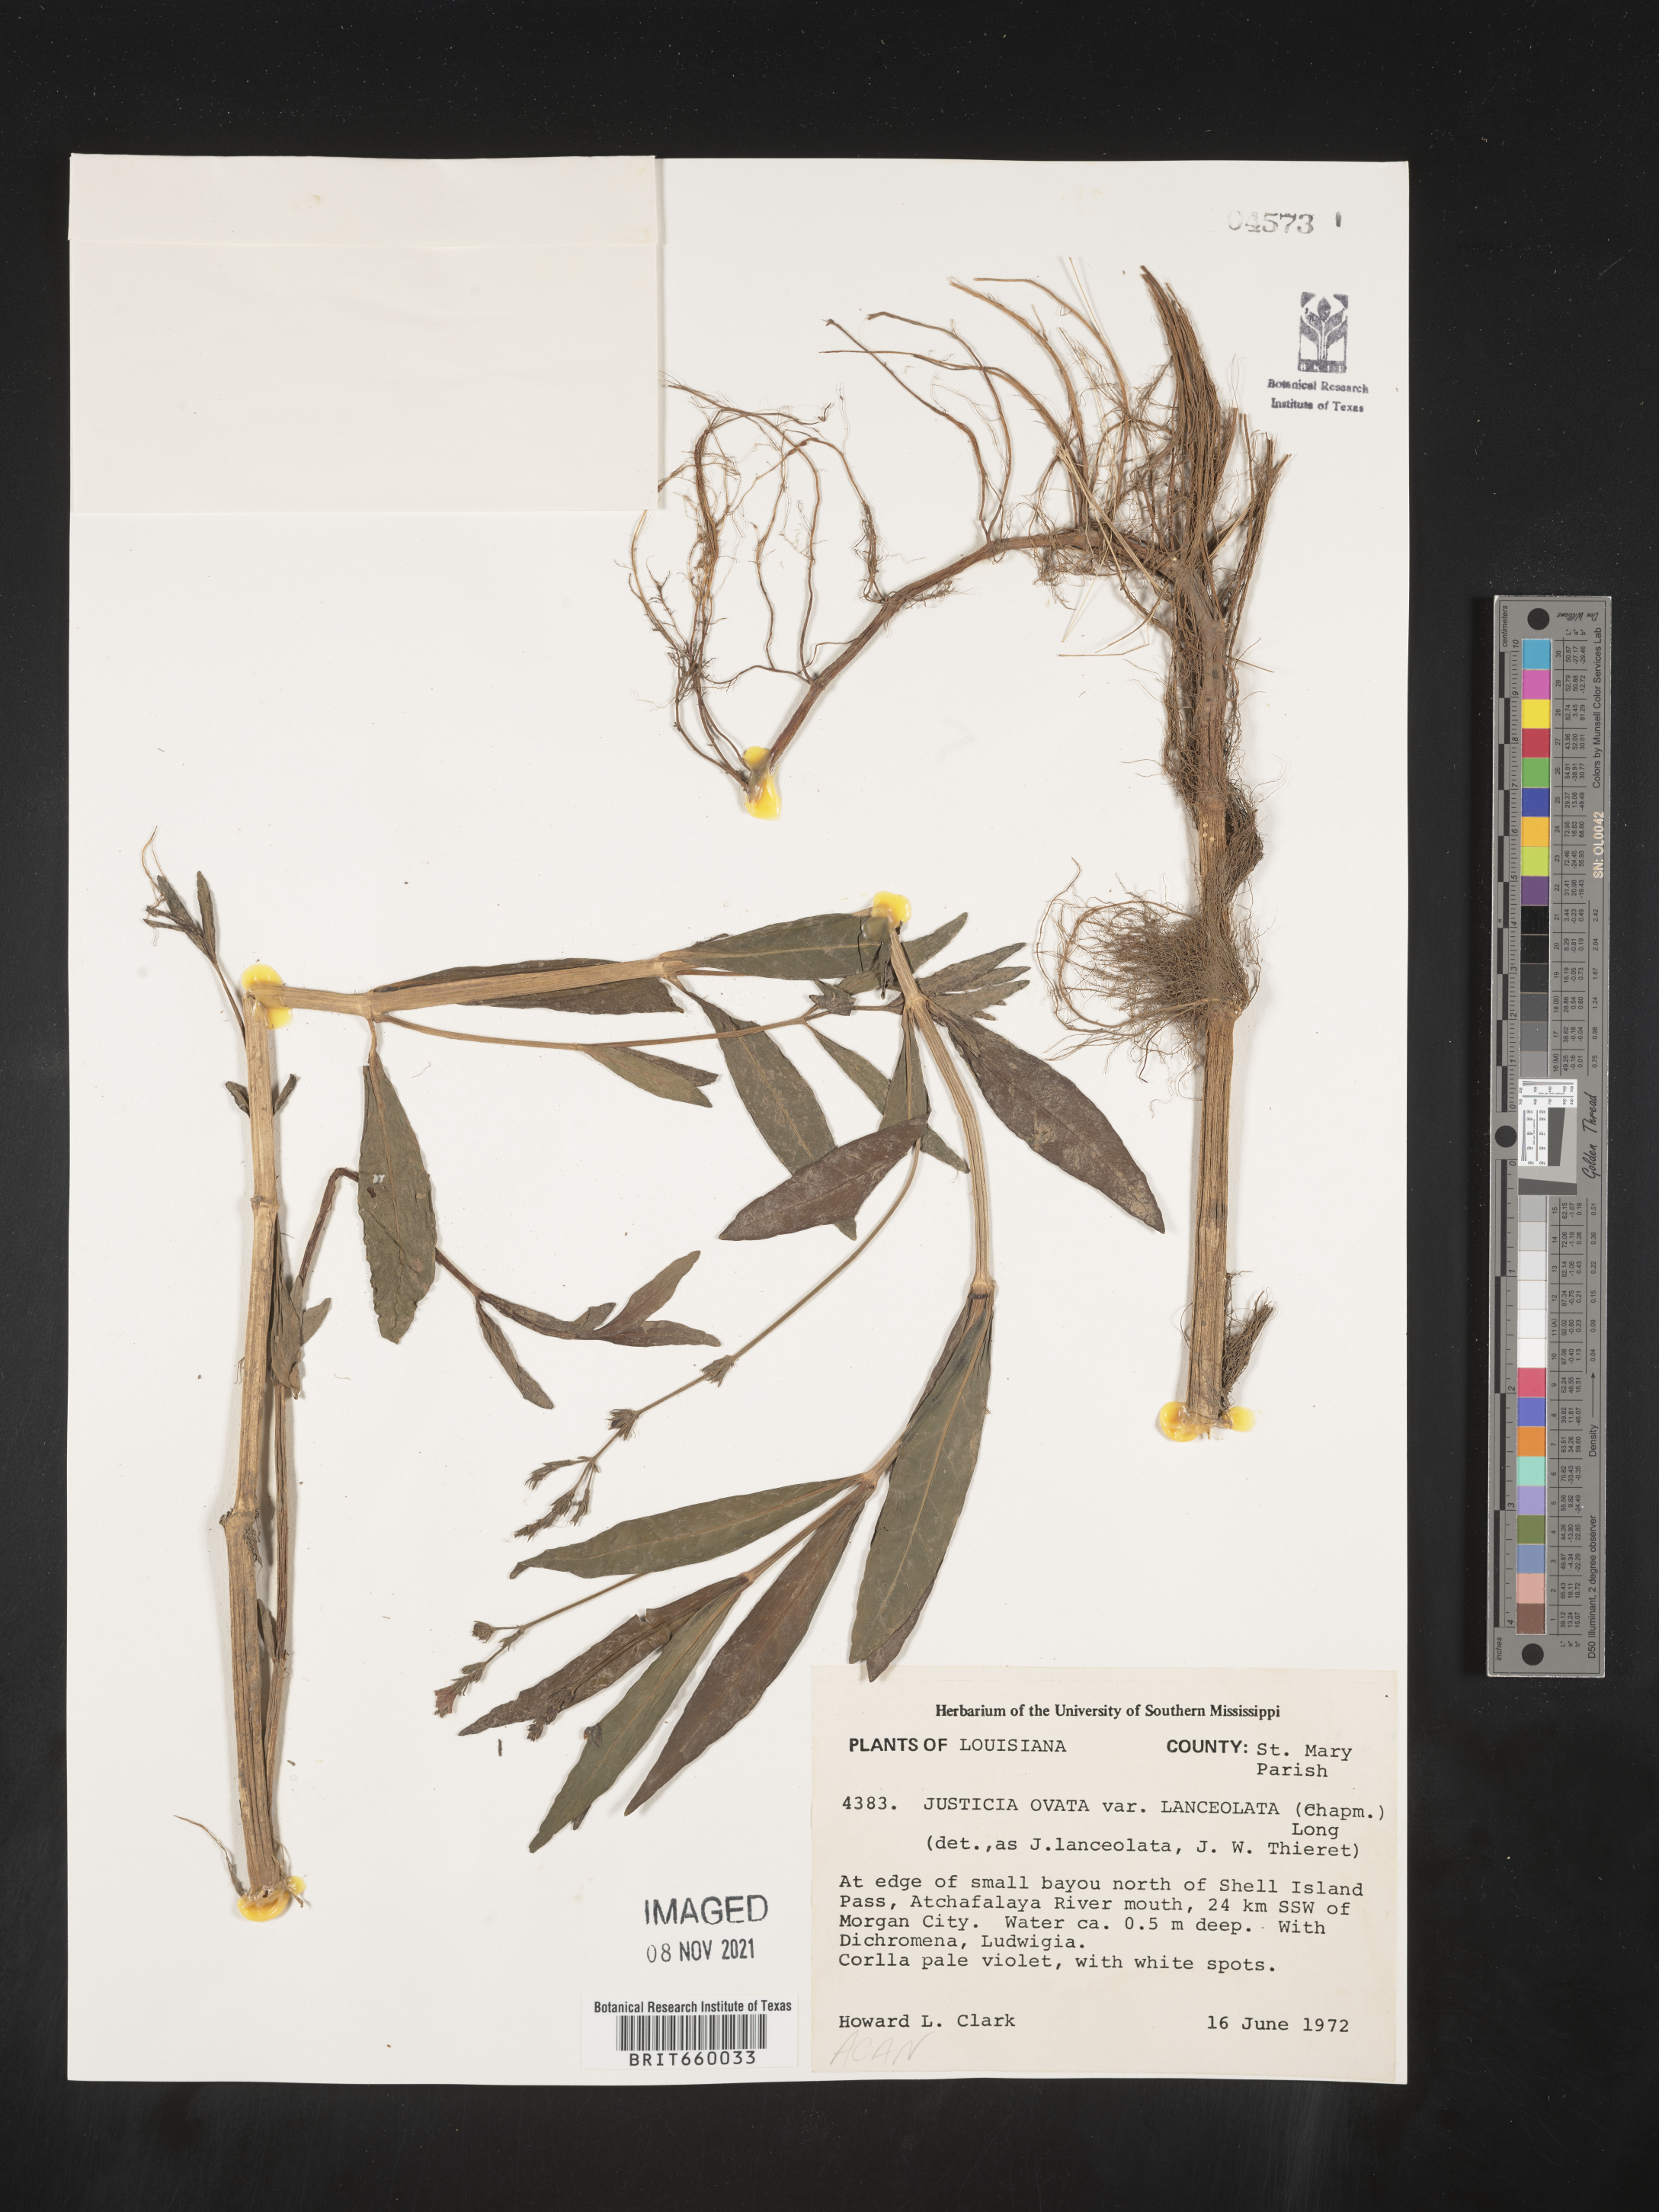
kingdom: Plantae
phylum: Tracheophyta
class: Magnoliopsida
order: Lamiales
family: Acanthaceae
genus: Justicia
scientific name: Justicia lanceolata
